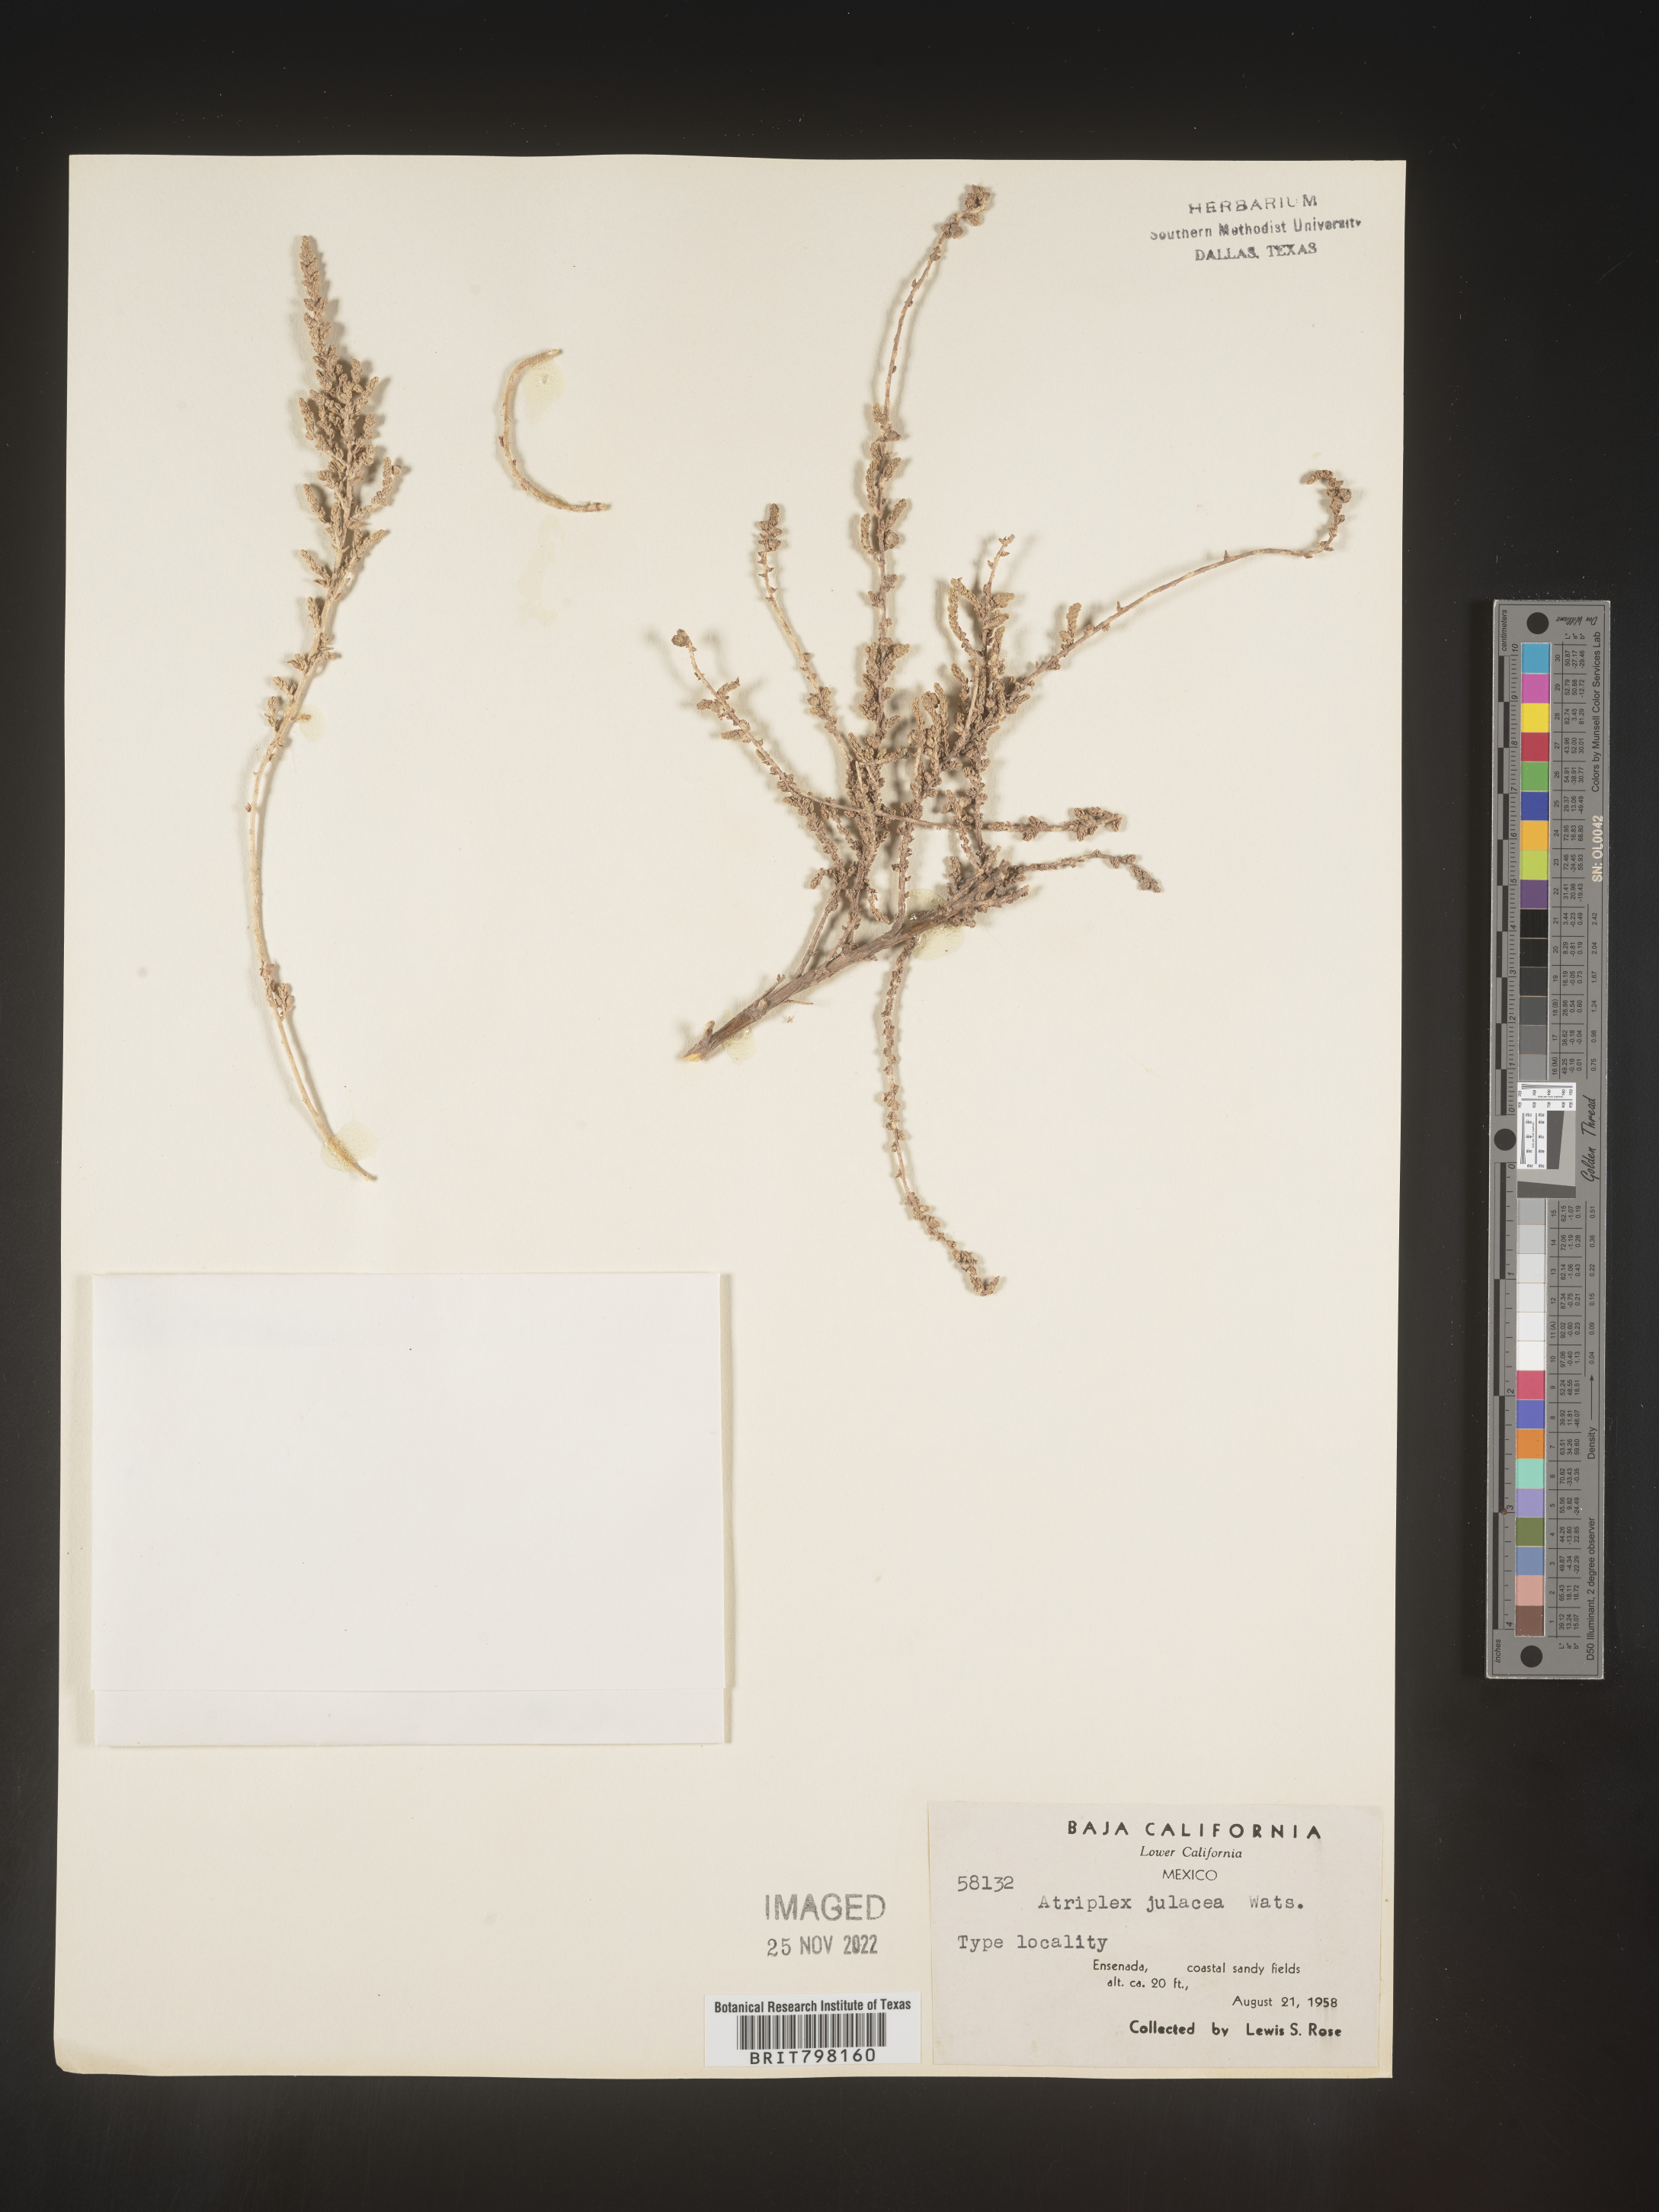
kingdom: Plantae
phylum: Tracheophyta
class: Magnoliopsida
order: Caryophyllales
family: Amaranthaceae
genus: Atriplex
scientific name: Atriplex
